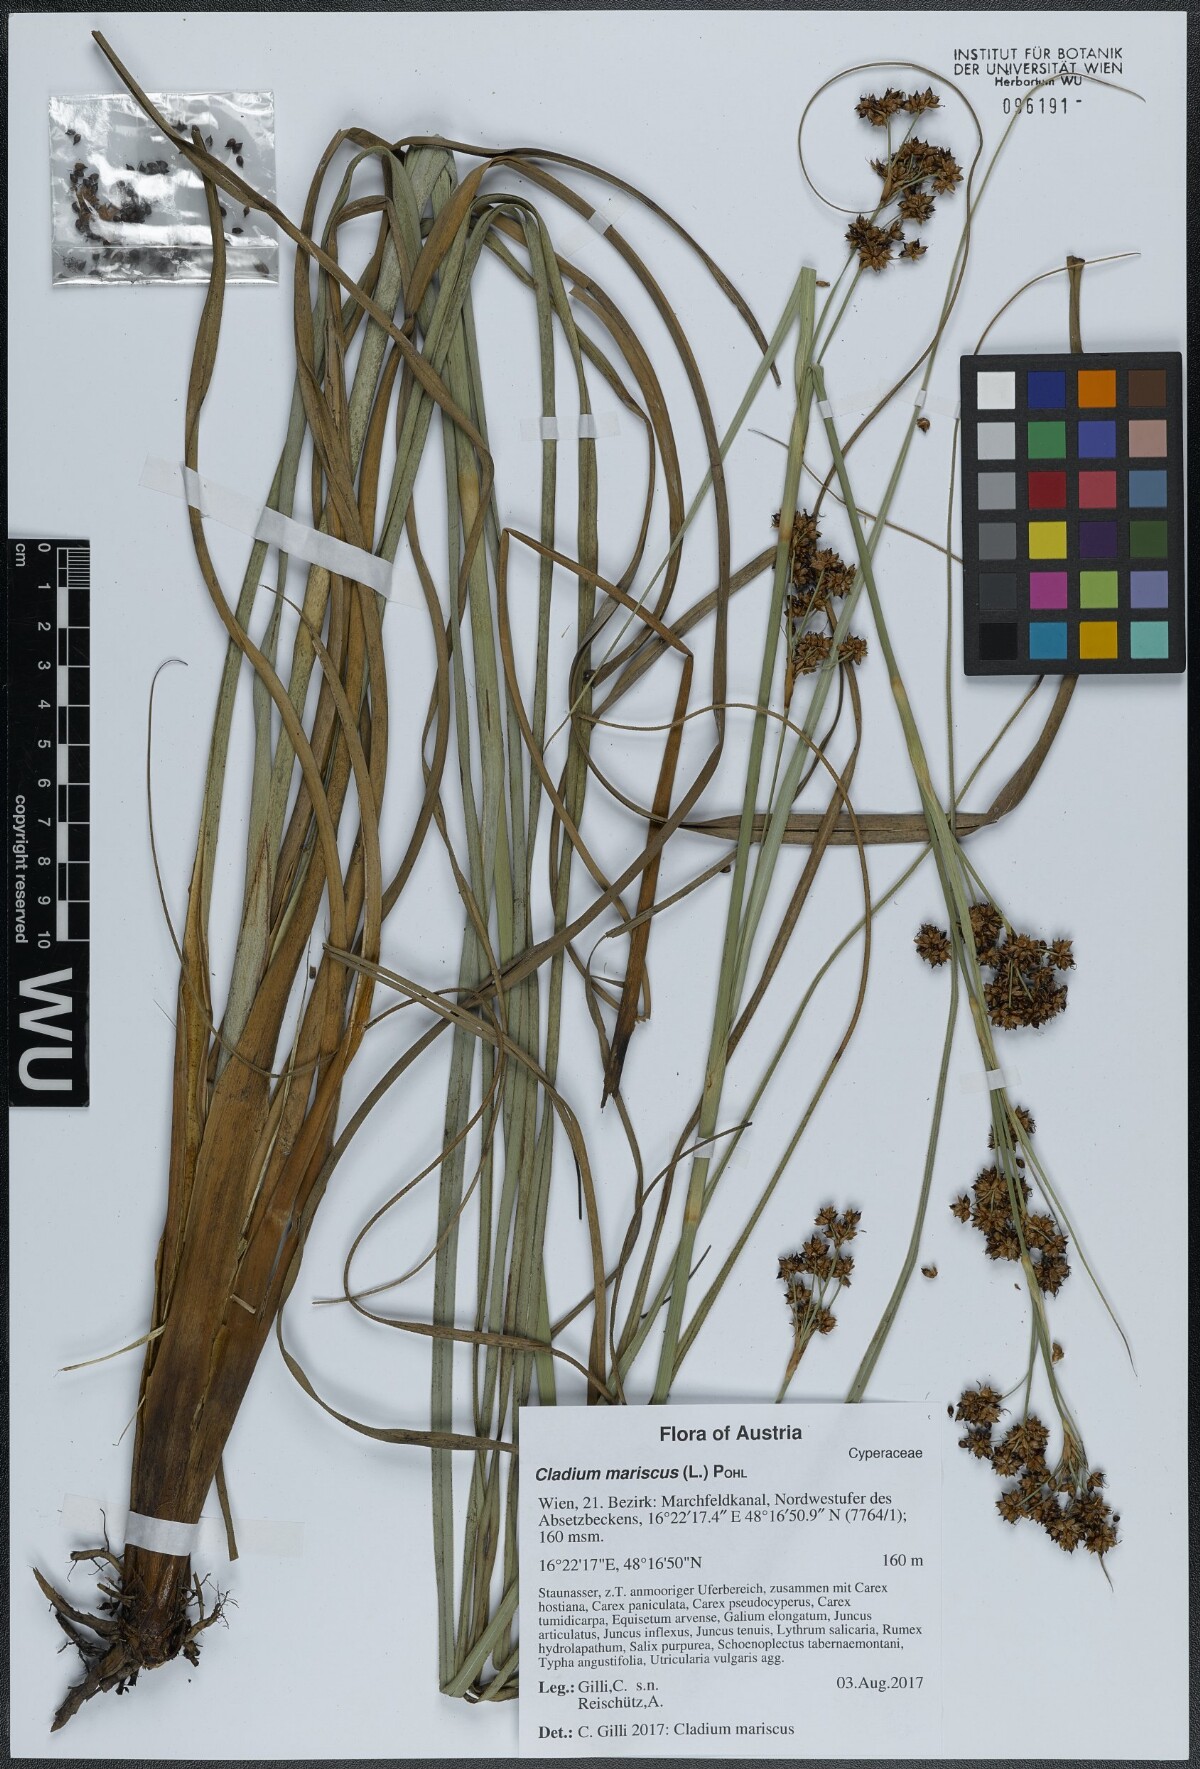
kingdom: Plantae
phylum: Tracheophyta
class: Liliopsida
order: Poales
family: Cyperaceae
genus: Cladium
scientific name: Cladium mariscus
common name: Great fen-sedge
